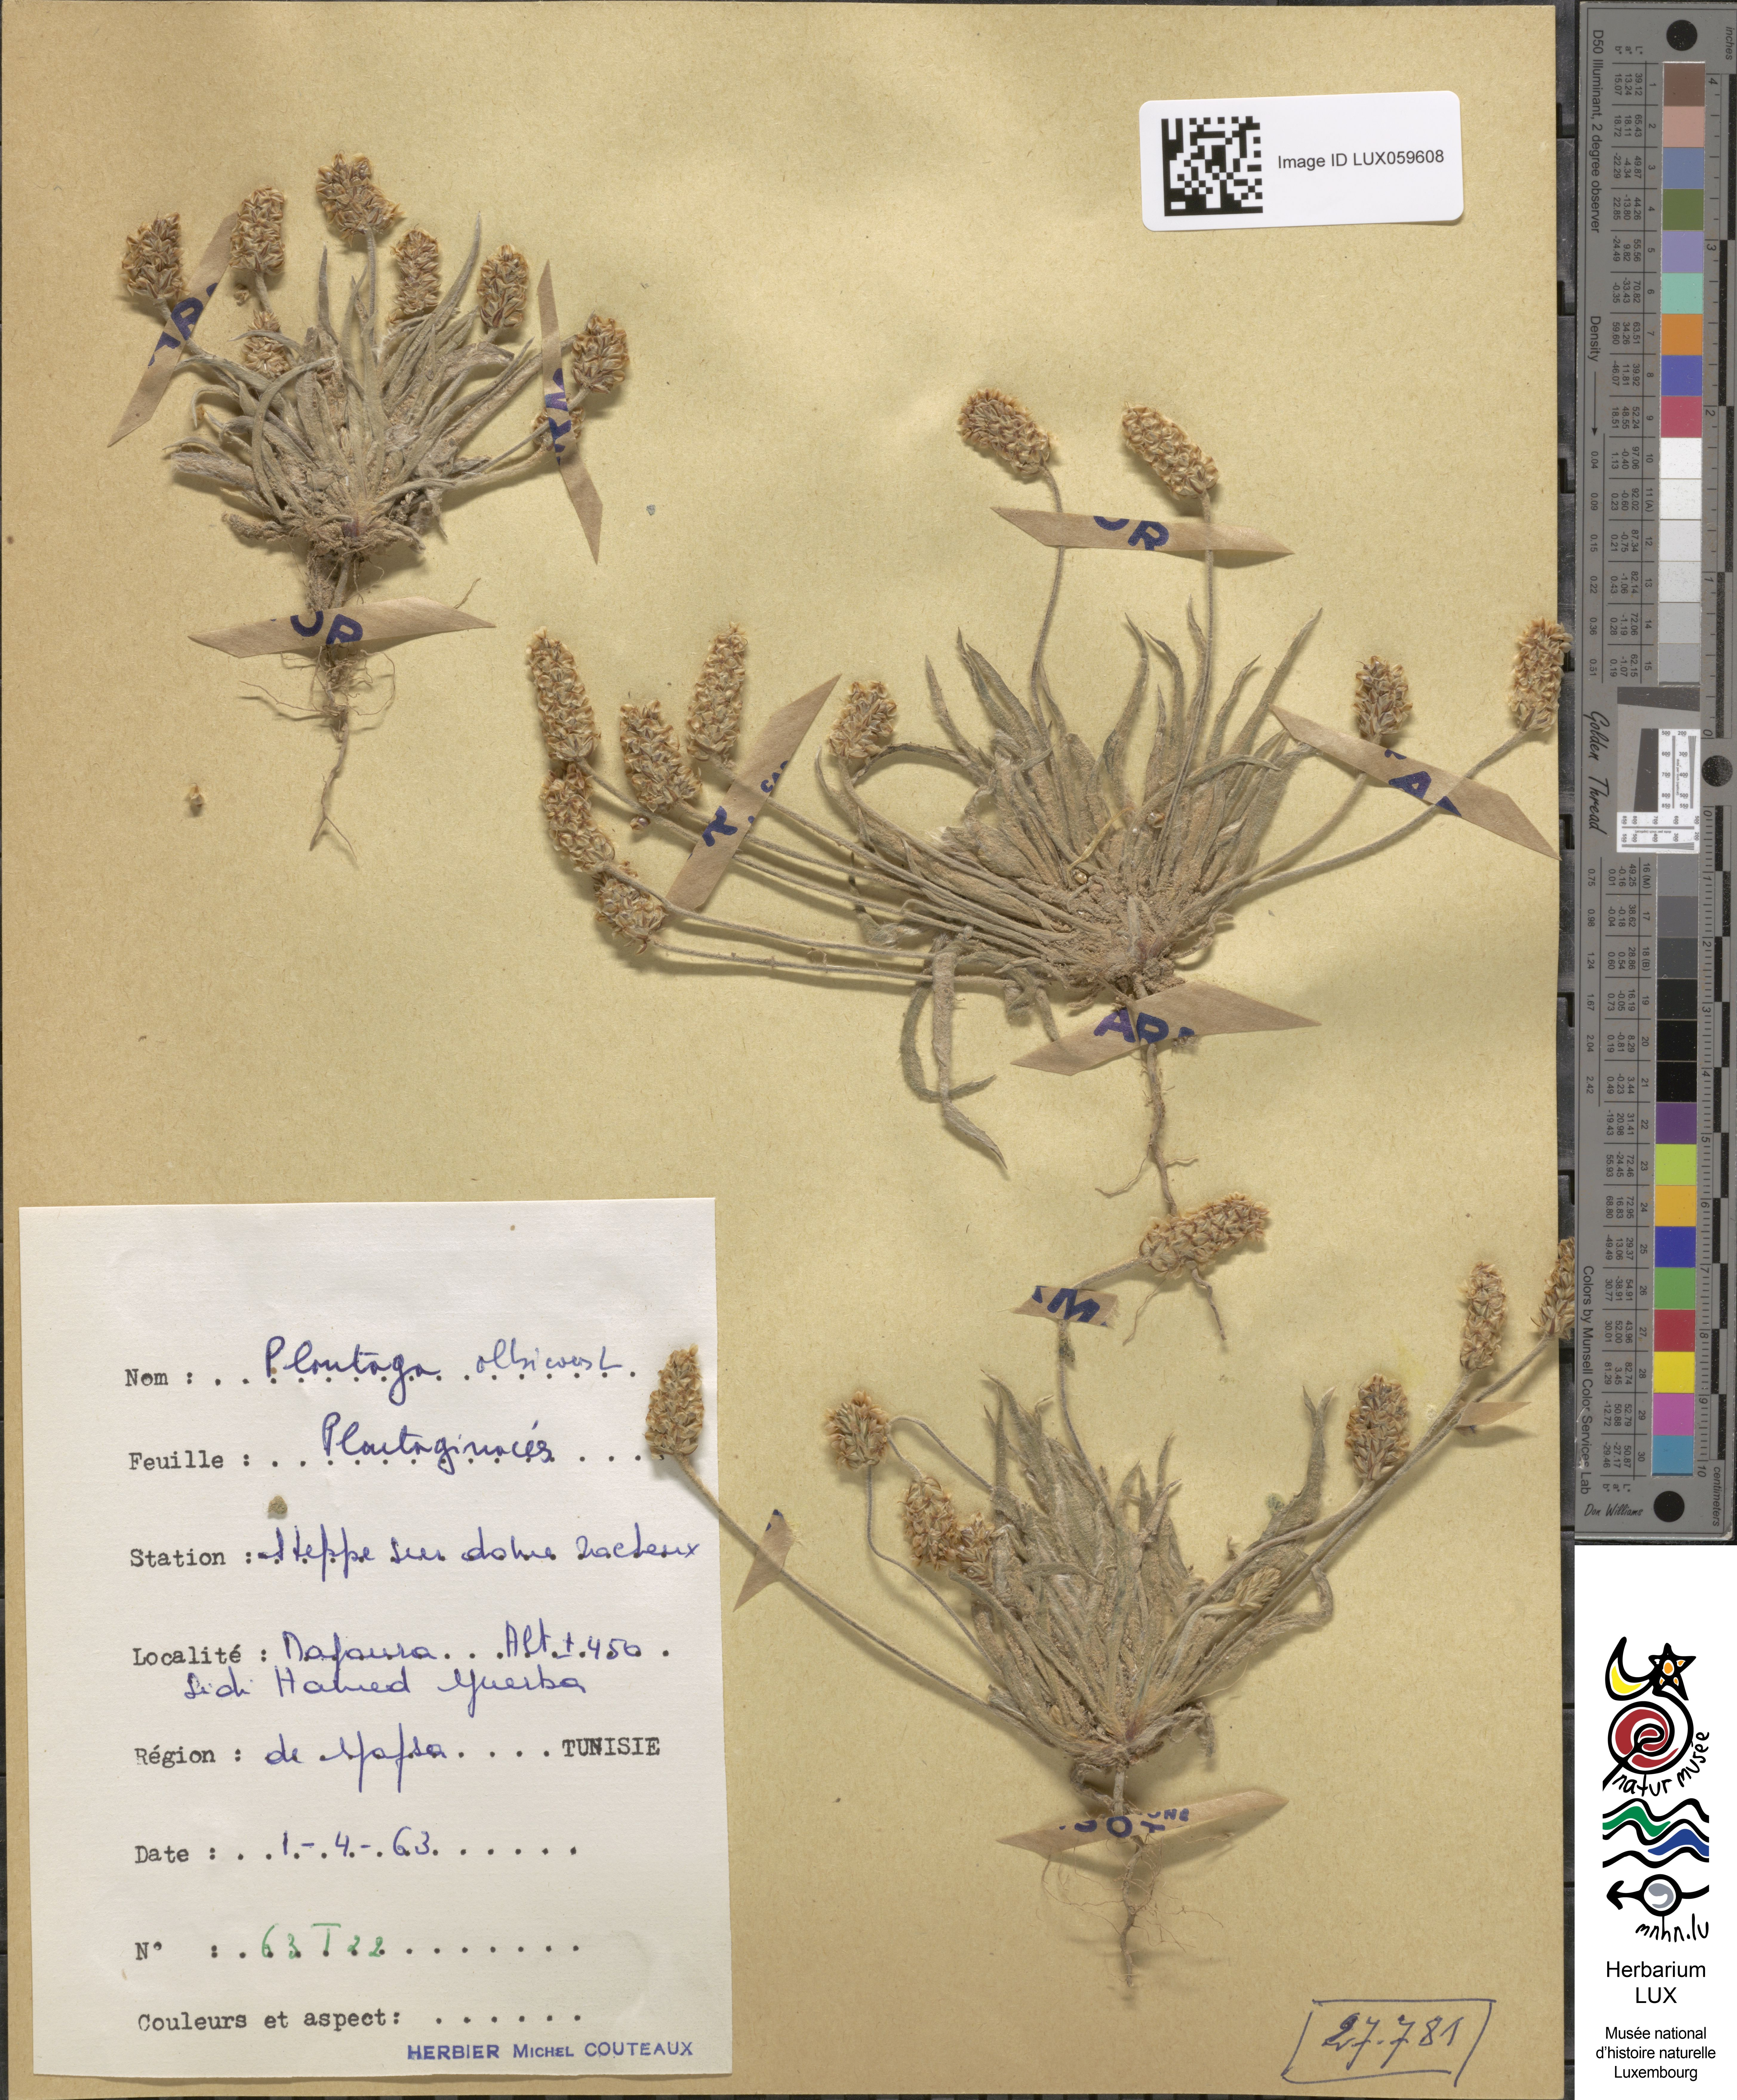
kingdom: Plantae
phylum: Tracheophyta
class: Magnoliopsida
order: Lamiales
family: Plantaginaceae
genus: Plantago
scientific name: Plantago albicans
